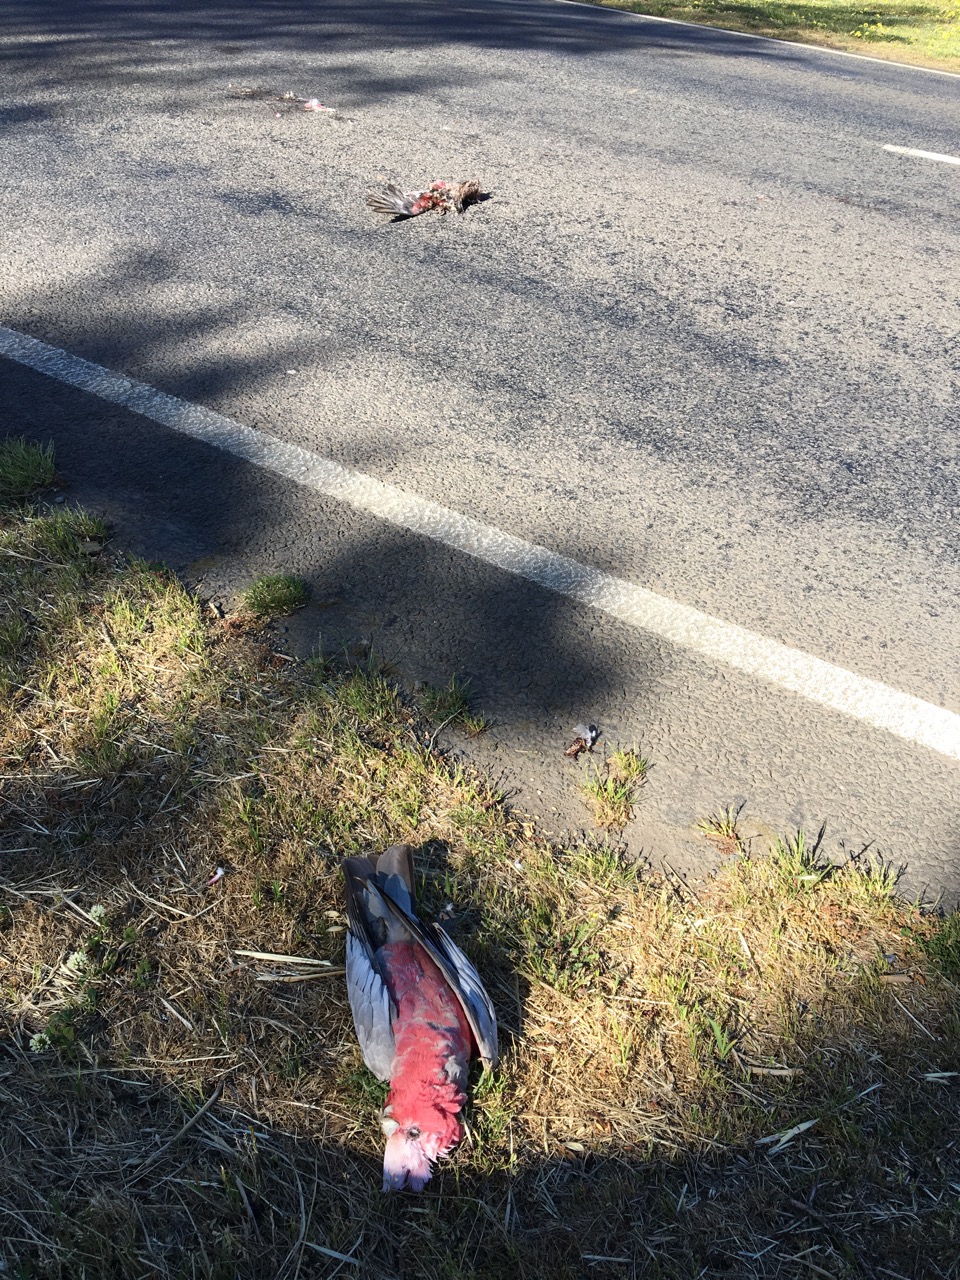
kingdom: Animalia
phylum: Chordata
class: Aves
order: Psittaciformes
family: Psittacidae
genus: Eolophus
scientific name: Eolophus roseicapilla
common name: Galah
